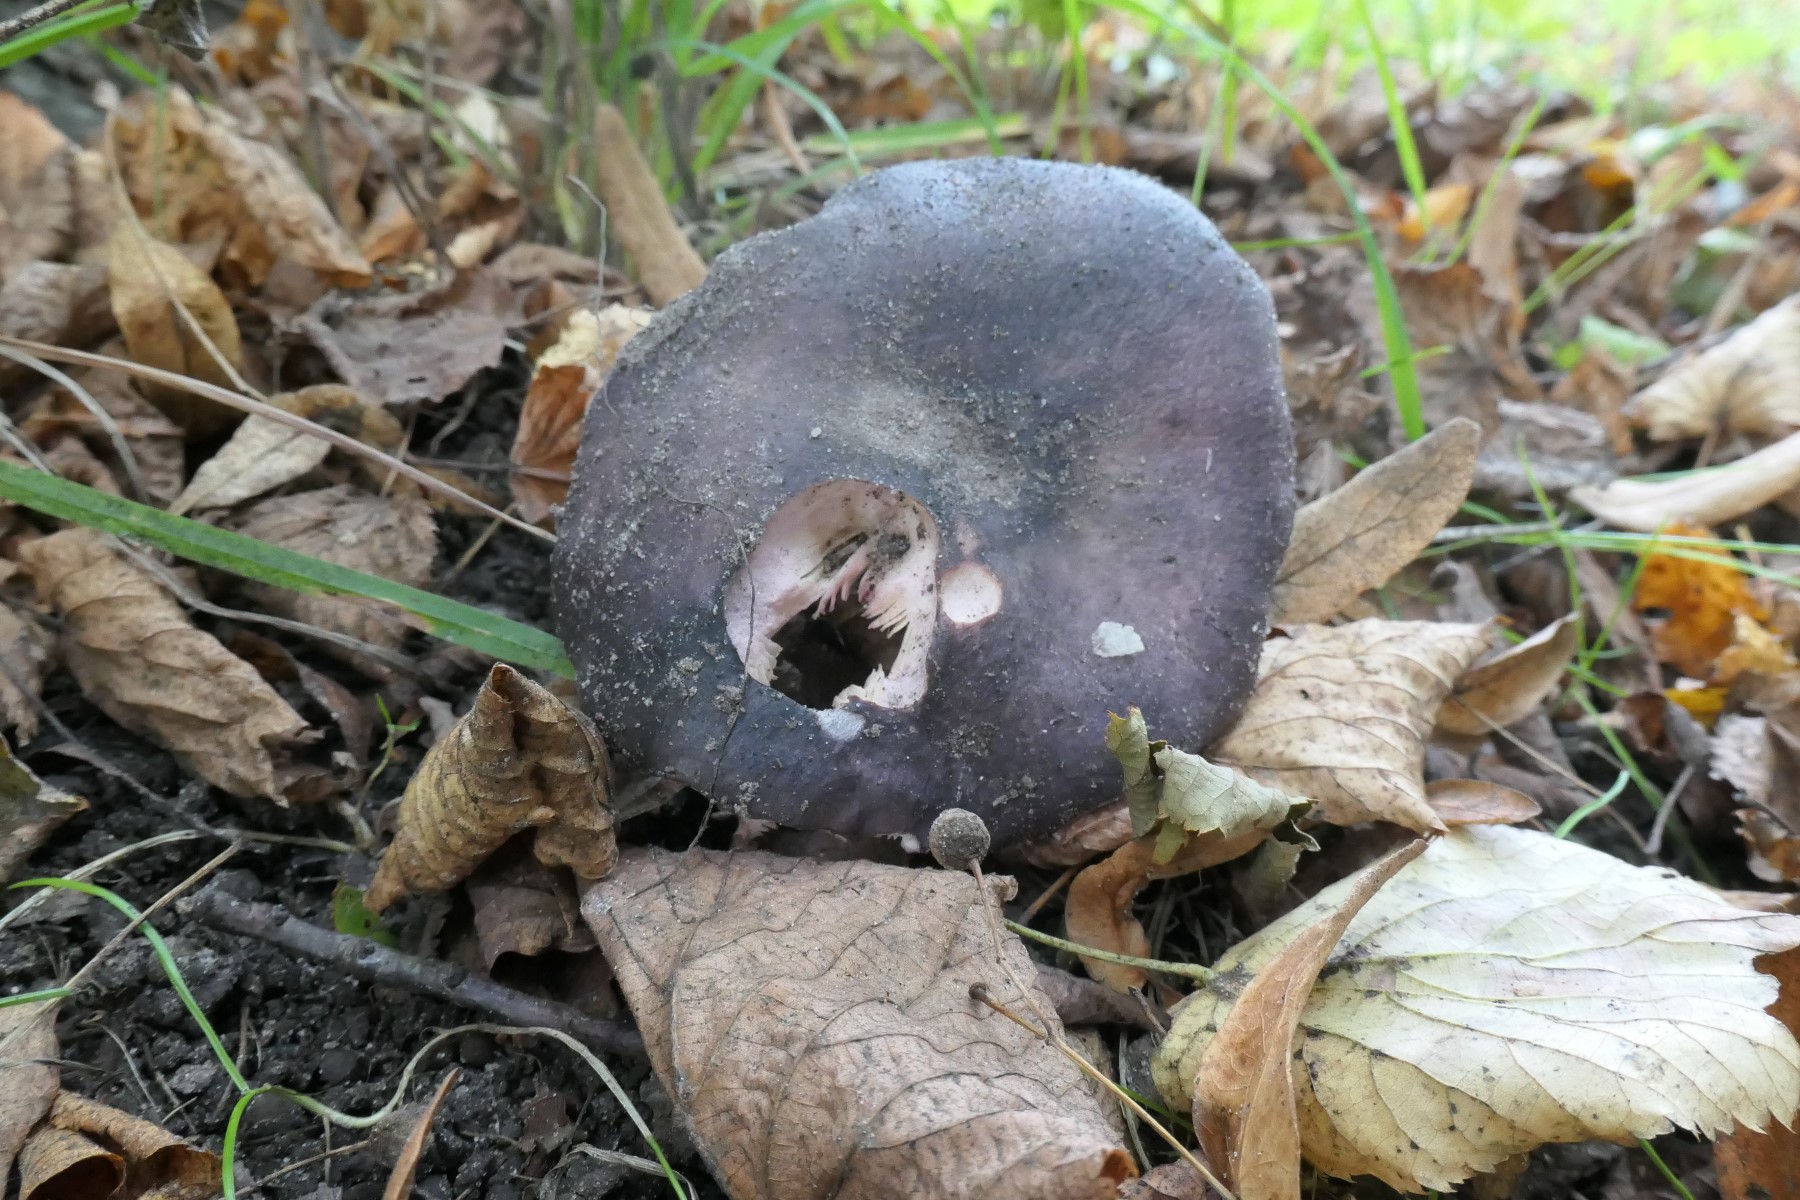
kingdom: Fungi
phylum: Basidiomycota
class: Agaricomycetes
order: Russulales
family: Russulaceae
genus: Russula
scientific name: Russula
